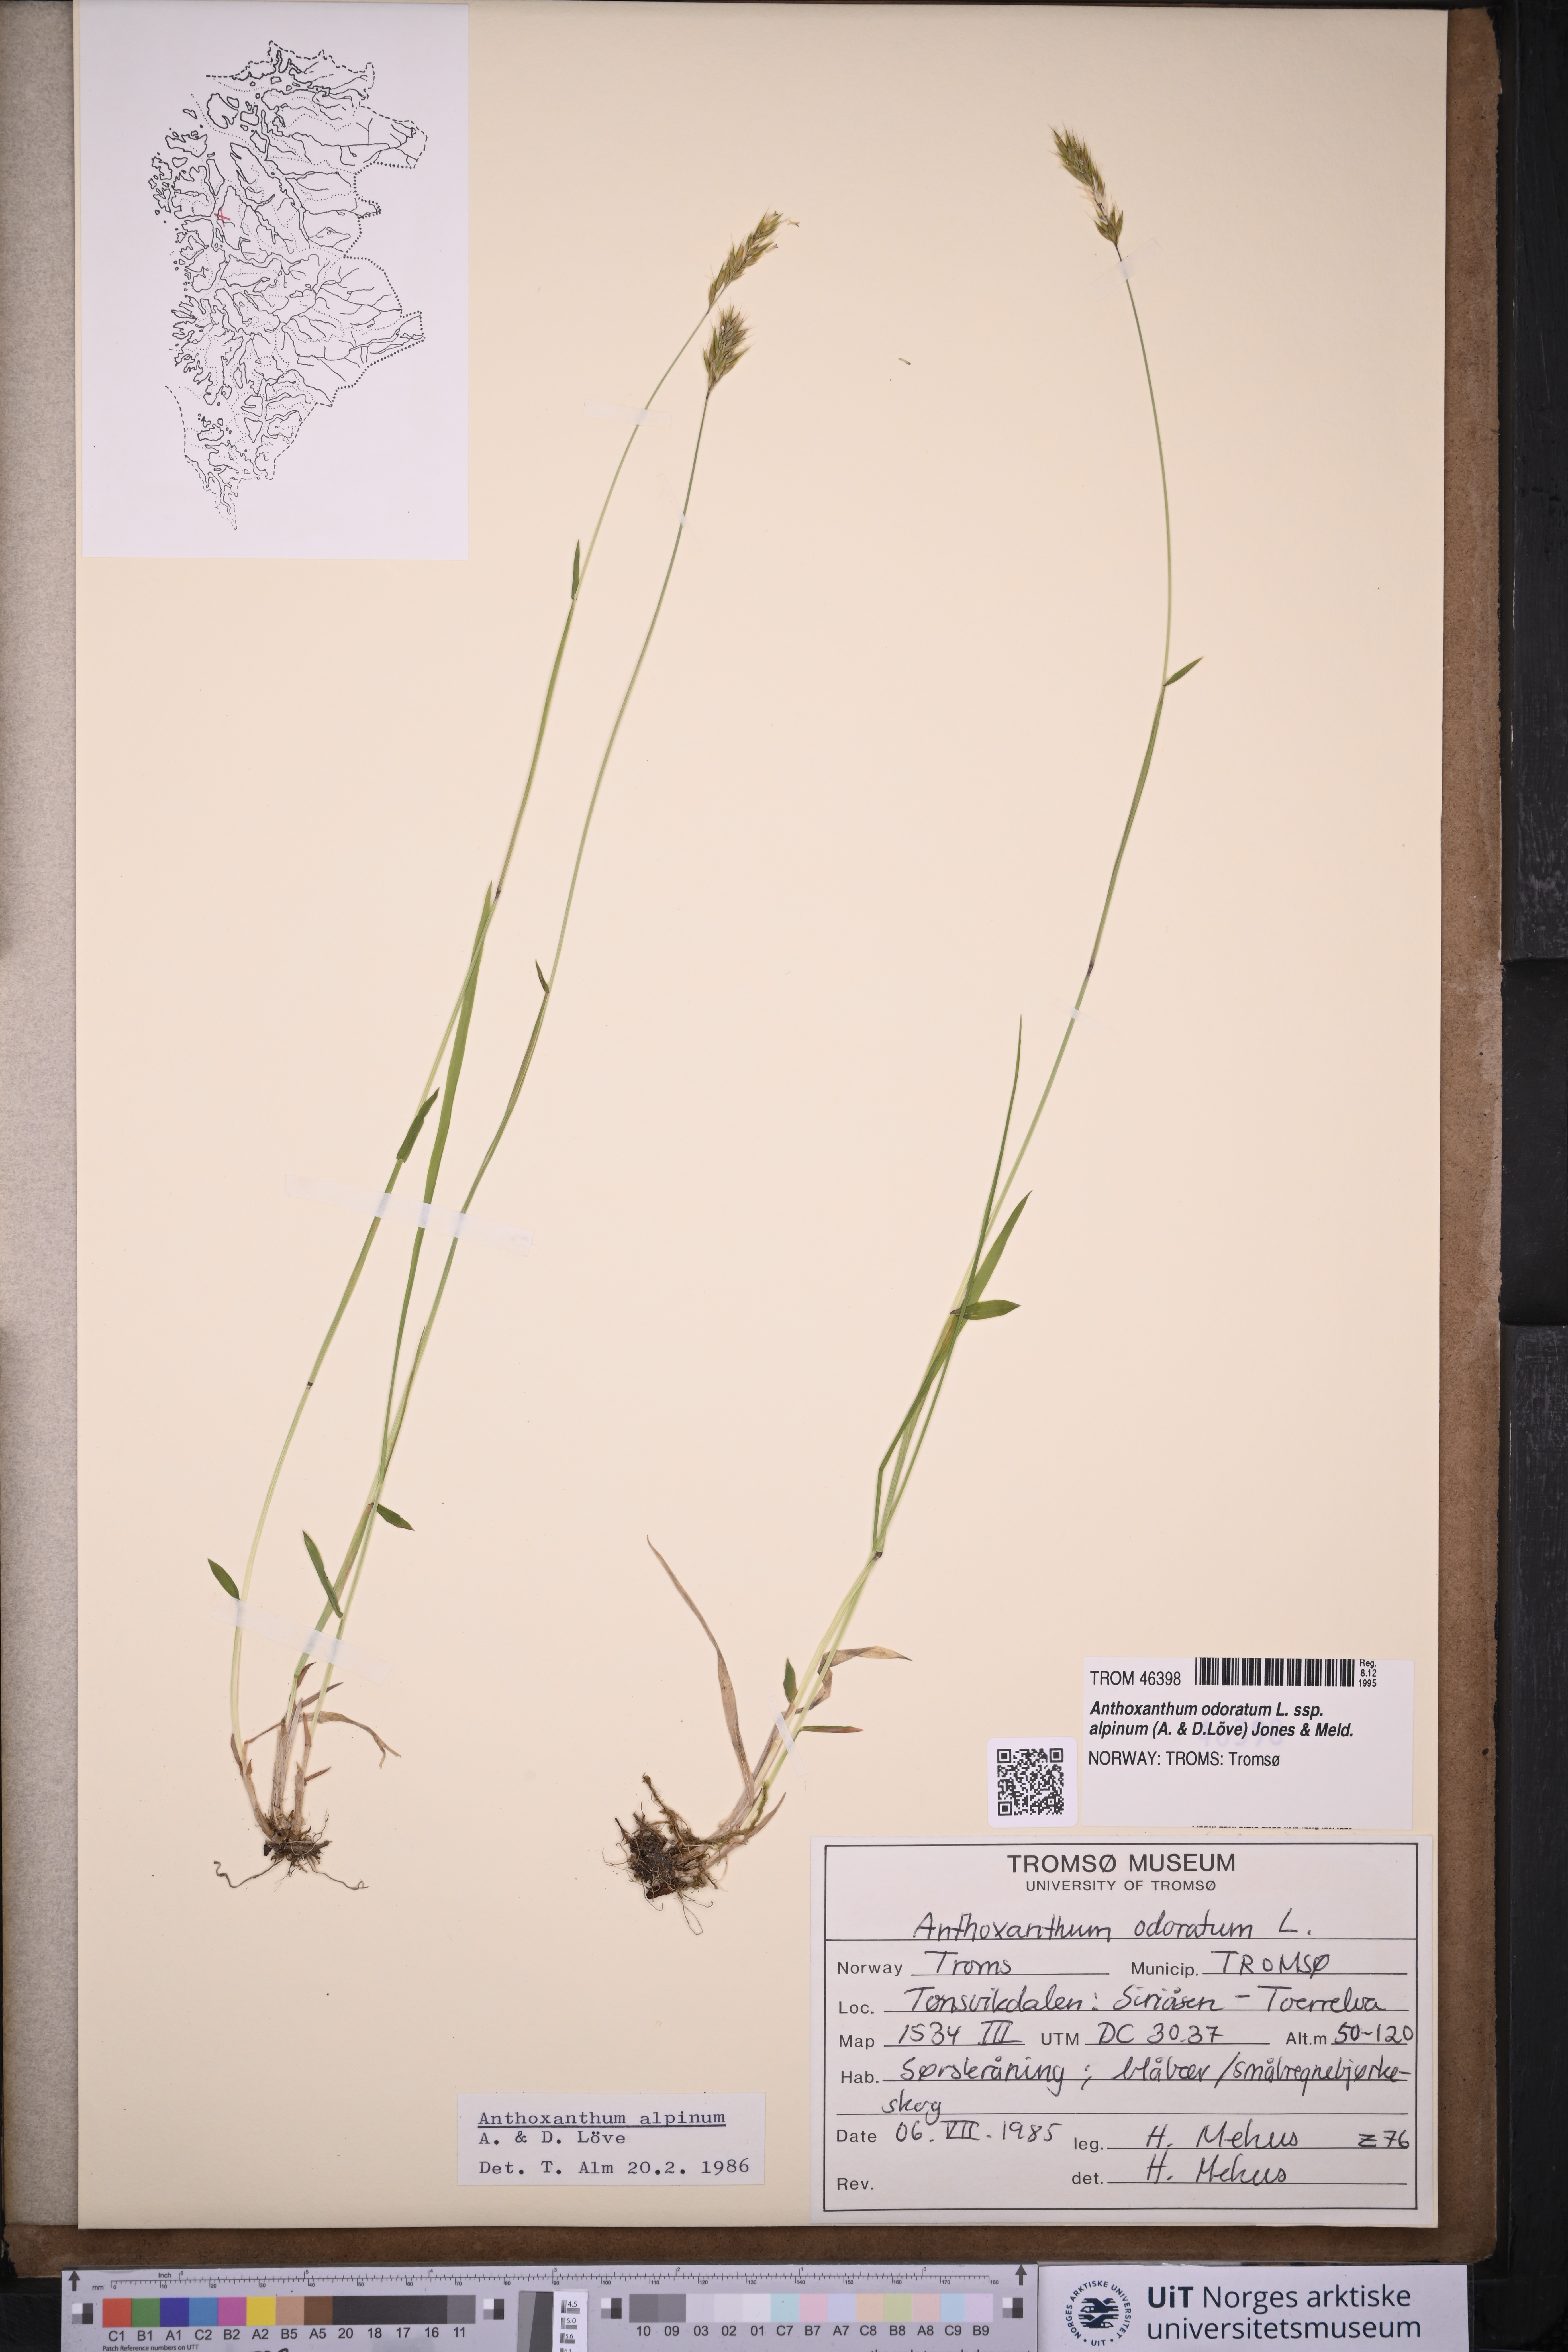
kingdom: Plantae
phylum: Tracheophyta
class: Liliopsida
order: Poales
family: Poaceae
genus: Anthoxanthum
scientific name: Anthoxanthum nipponicum
